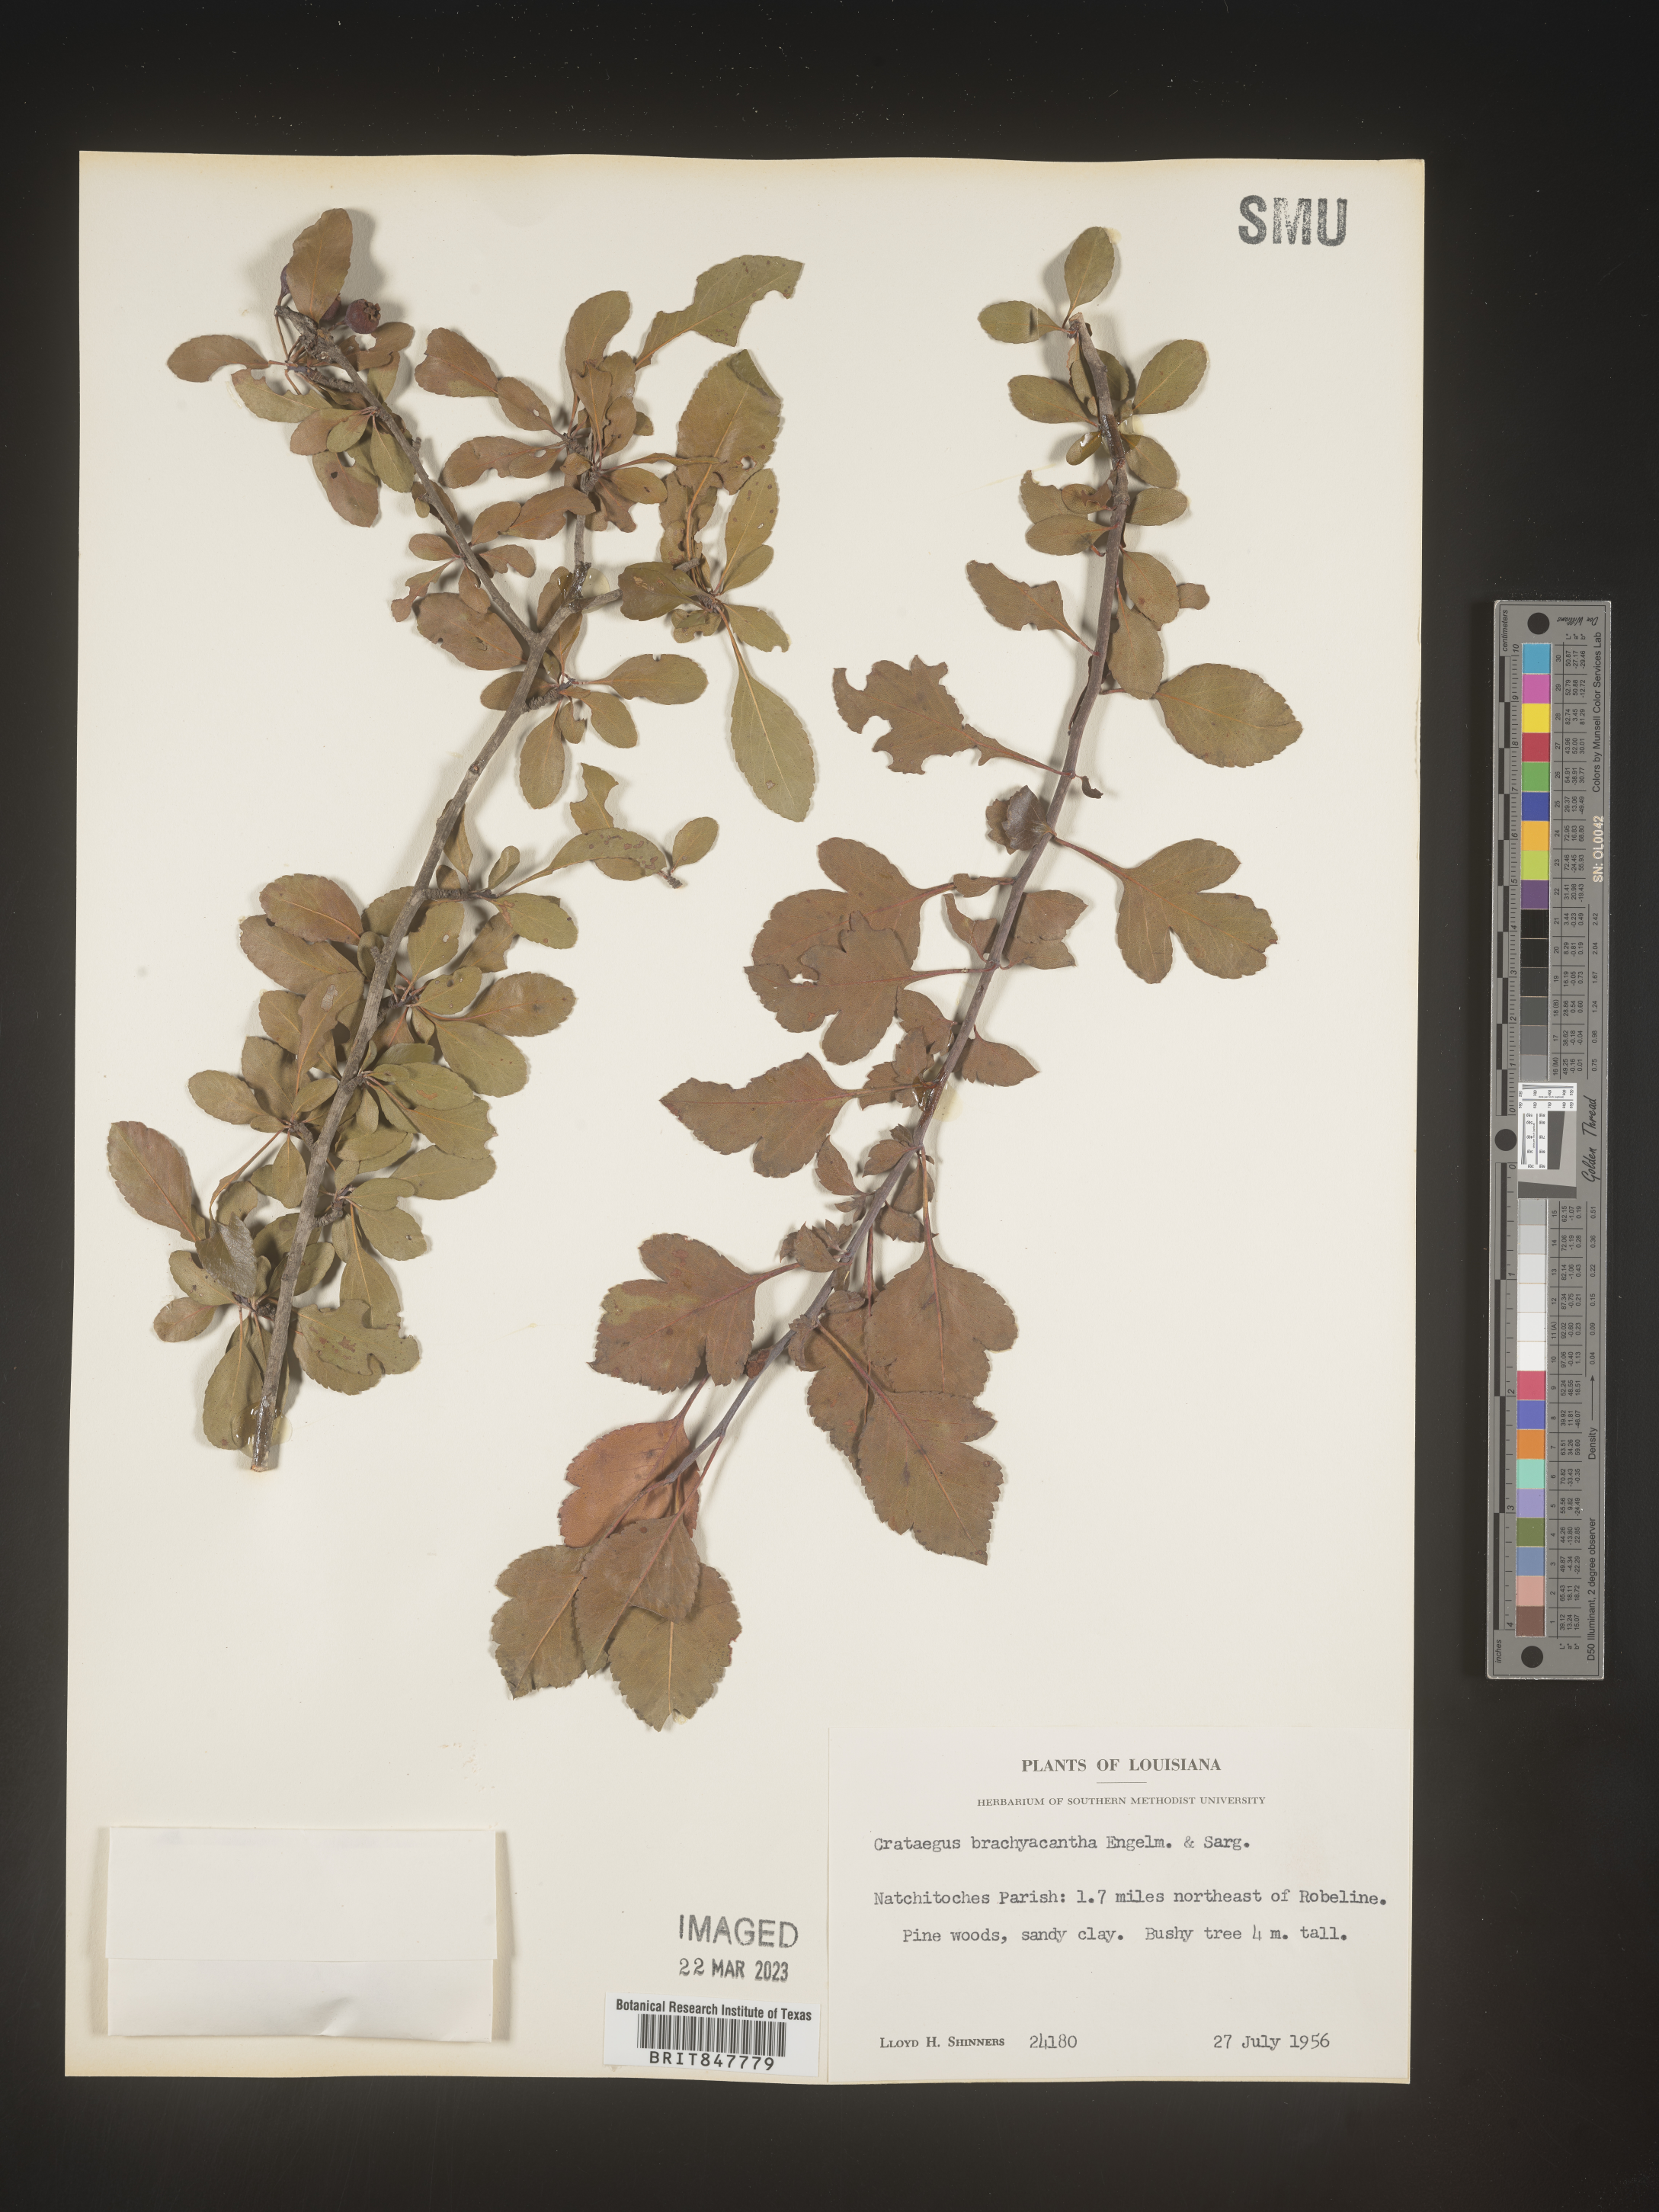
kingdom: Plantae
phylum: Tracheophyta
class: Magnoliopsida
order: Rosales
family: Rosaceae
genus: Crataegus
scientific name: Crataegus brachyacantha
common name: Blueberry-hawthorn
